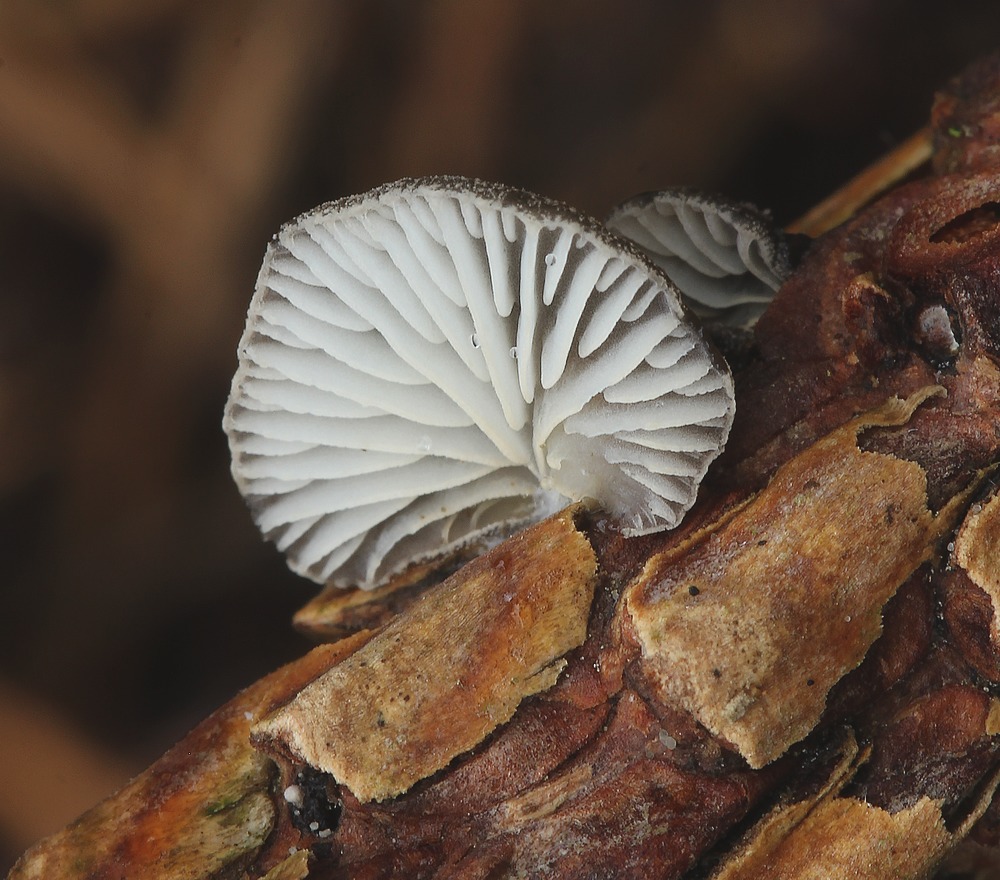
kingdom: Fungi
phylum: Basidiomycota
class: Agaricomycetes
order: Agaricales
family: Pleurotaceae
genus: Hohenbuehelia
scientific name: Hohenbuehelia atrocoerulea
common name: blålig filthat
